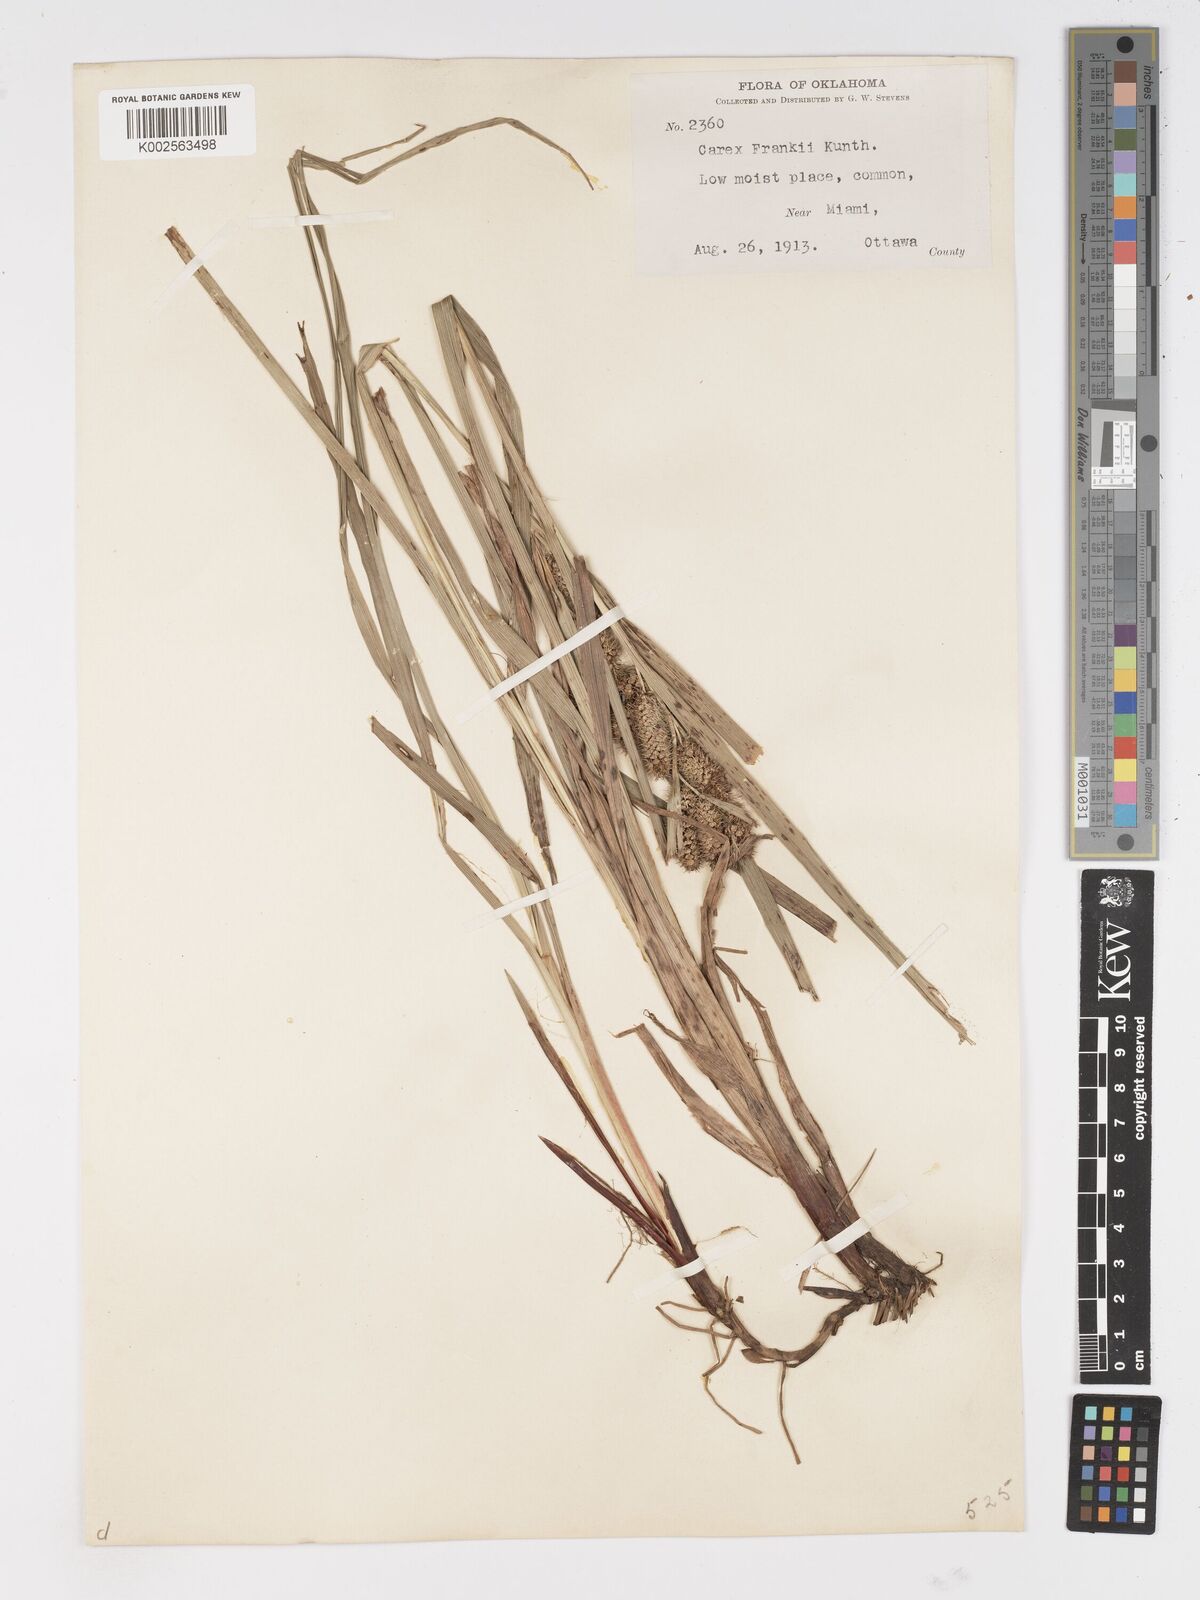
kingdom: Plantae
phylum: Tracheophyta
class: Liliopsida
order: Poales
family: Cyperaceae
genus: Carex
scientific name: Carex frankii
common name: Frank's sedge
